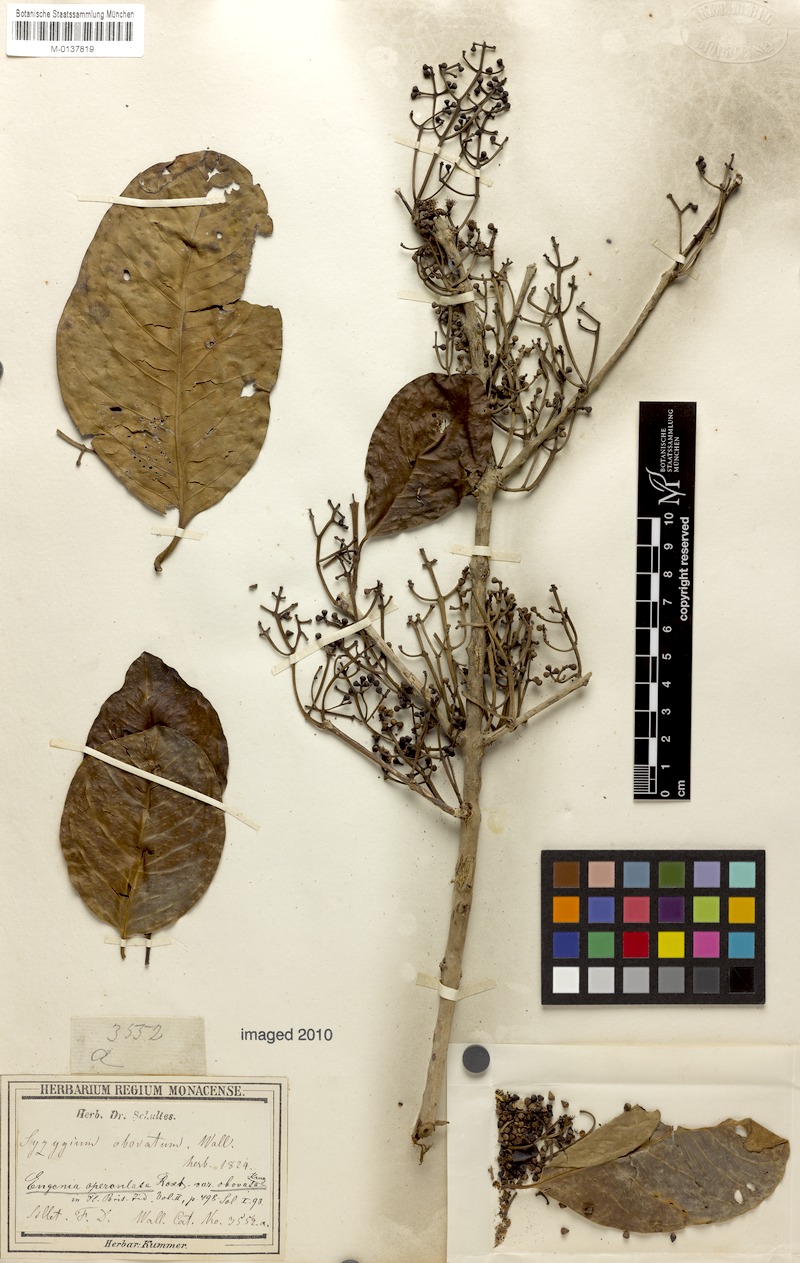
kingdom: Plantae
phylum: Tracheophyta
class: Magnoliopsida
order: Myrtales
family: Myrtaceae
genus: Syzygium
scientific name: Syzygium nervosum
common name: Daly river satinash
